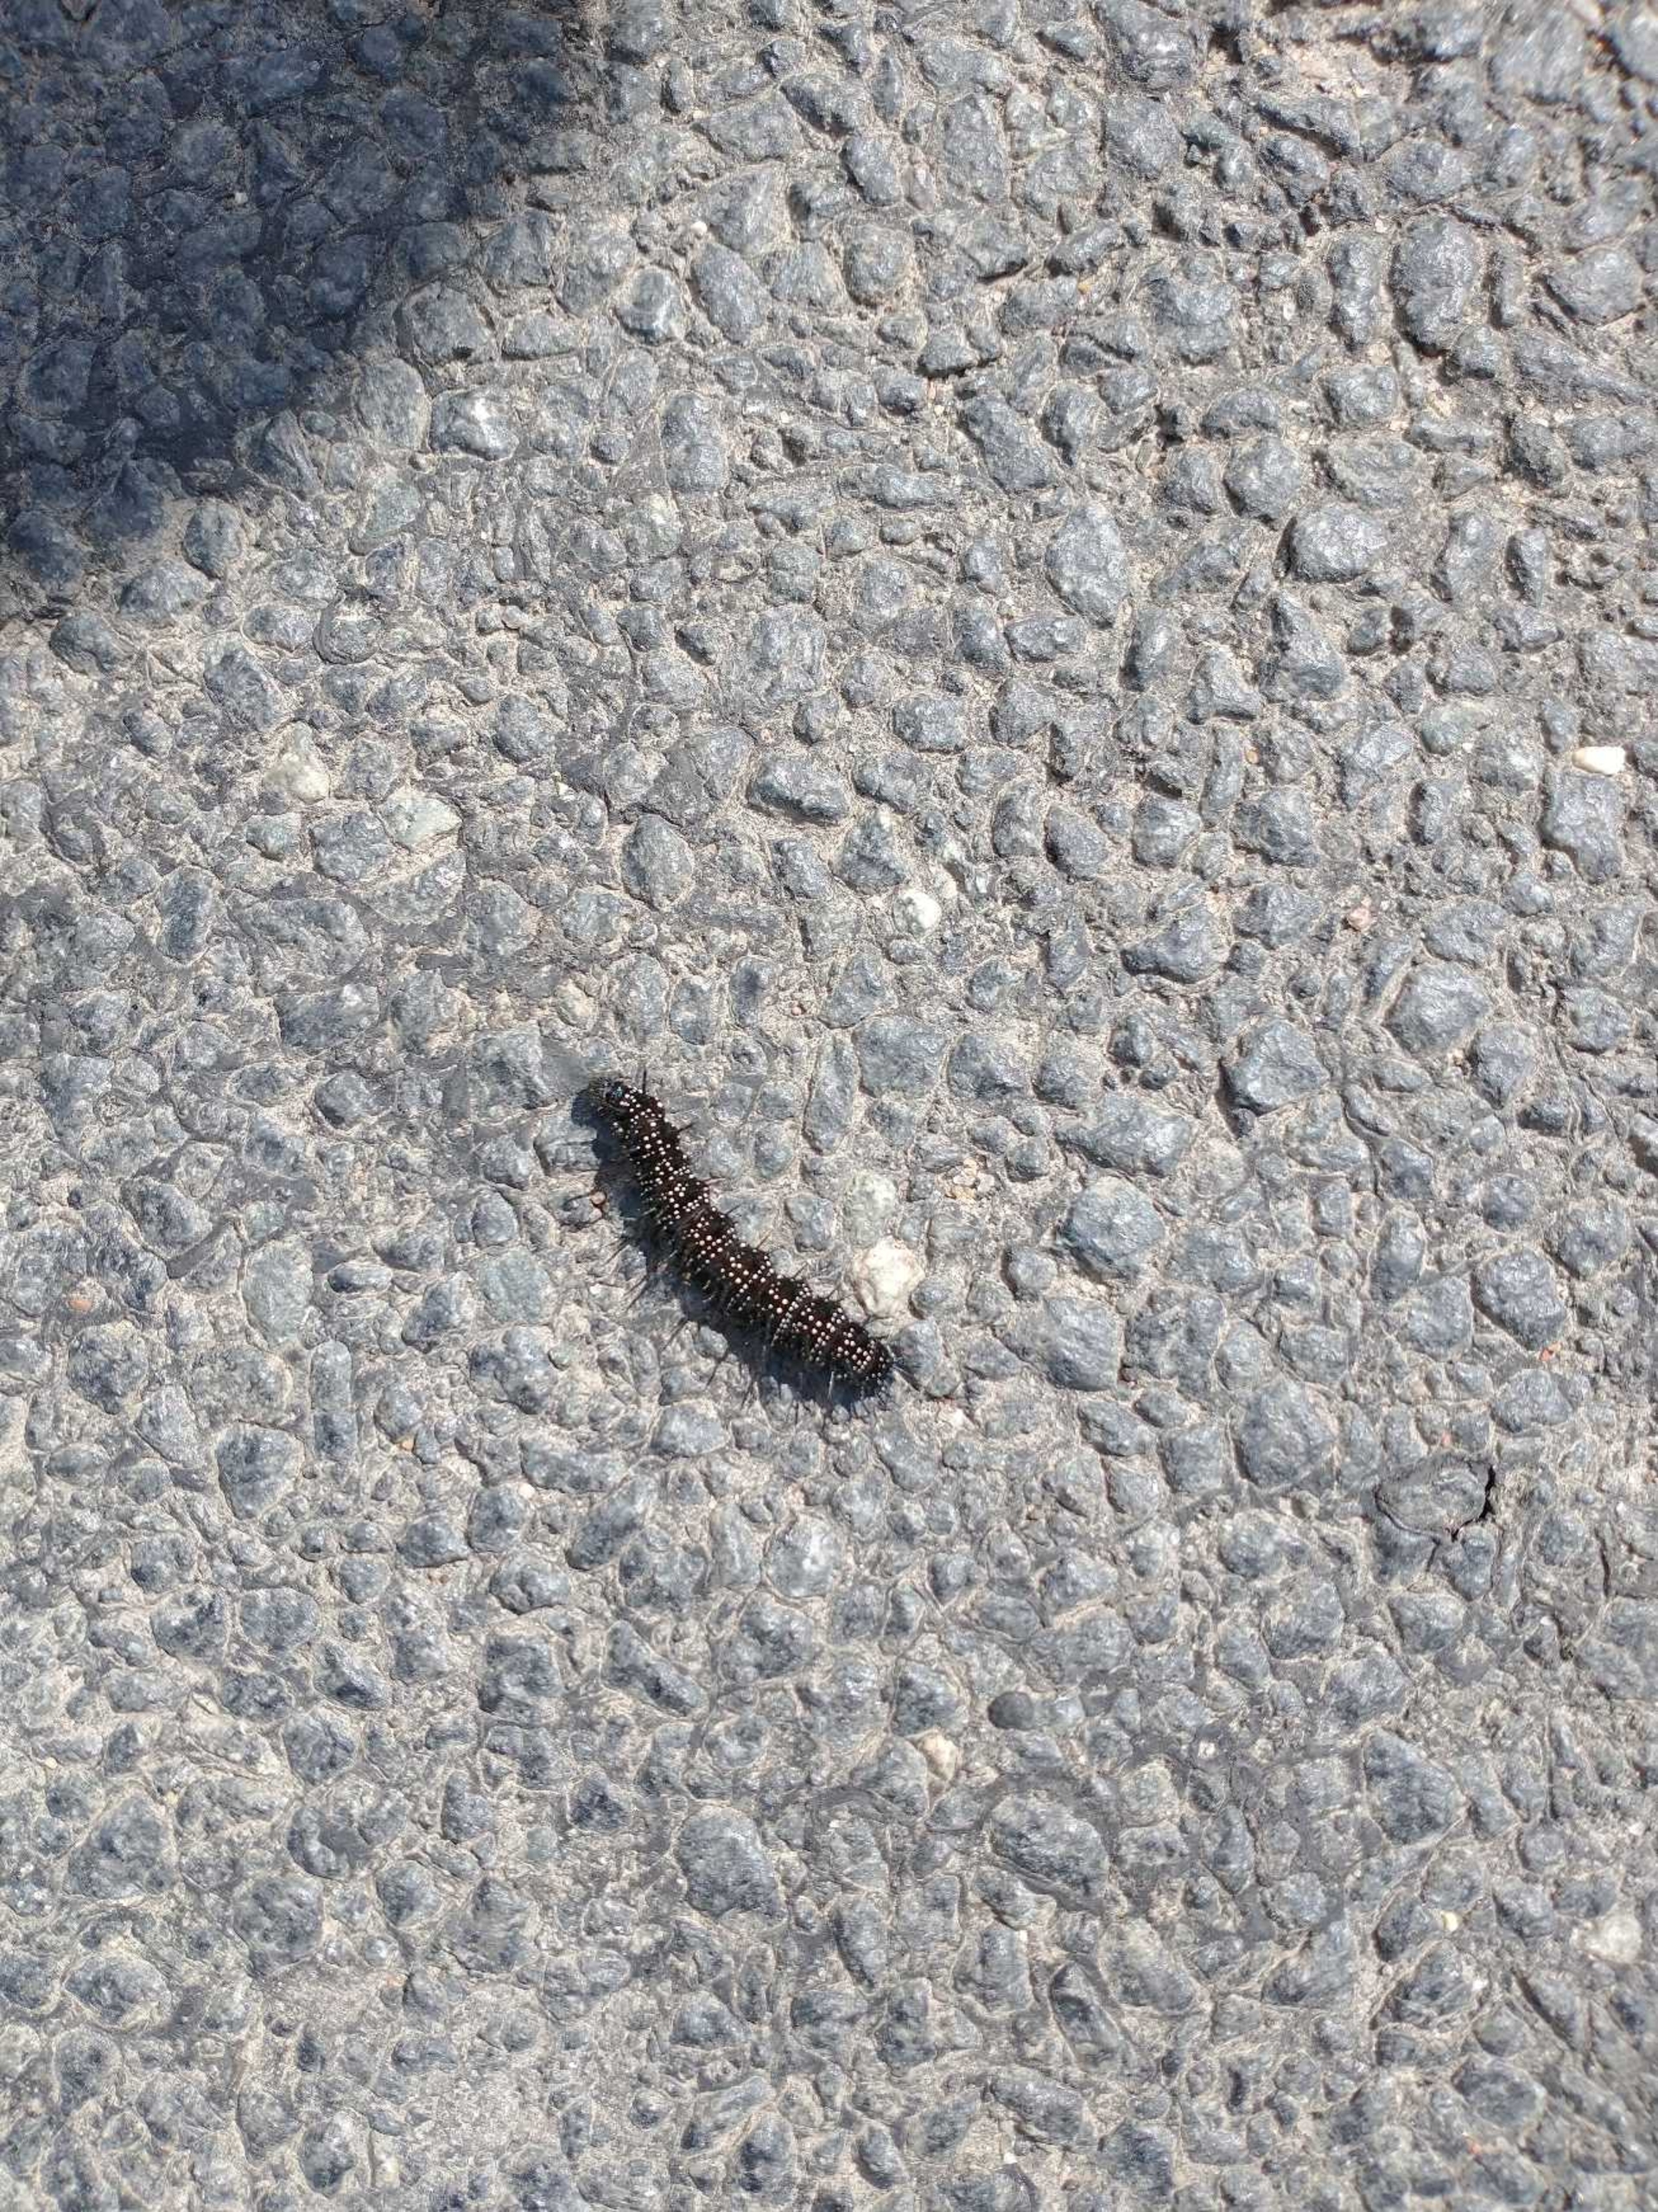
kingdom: Animalia
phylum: Arthropoda
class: Insecta
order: Lepidoptera
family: Nymphalidae
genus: Aglais
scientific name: Aglais io
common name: Dagpåfugleøje
